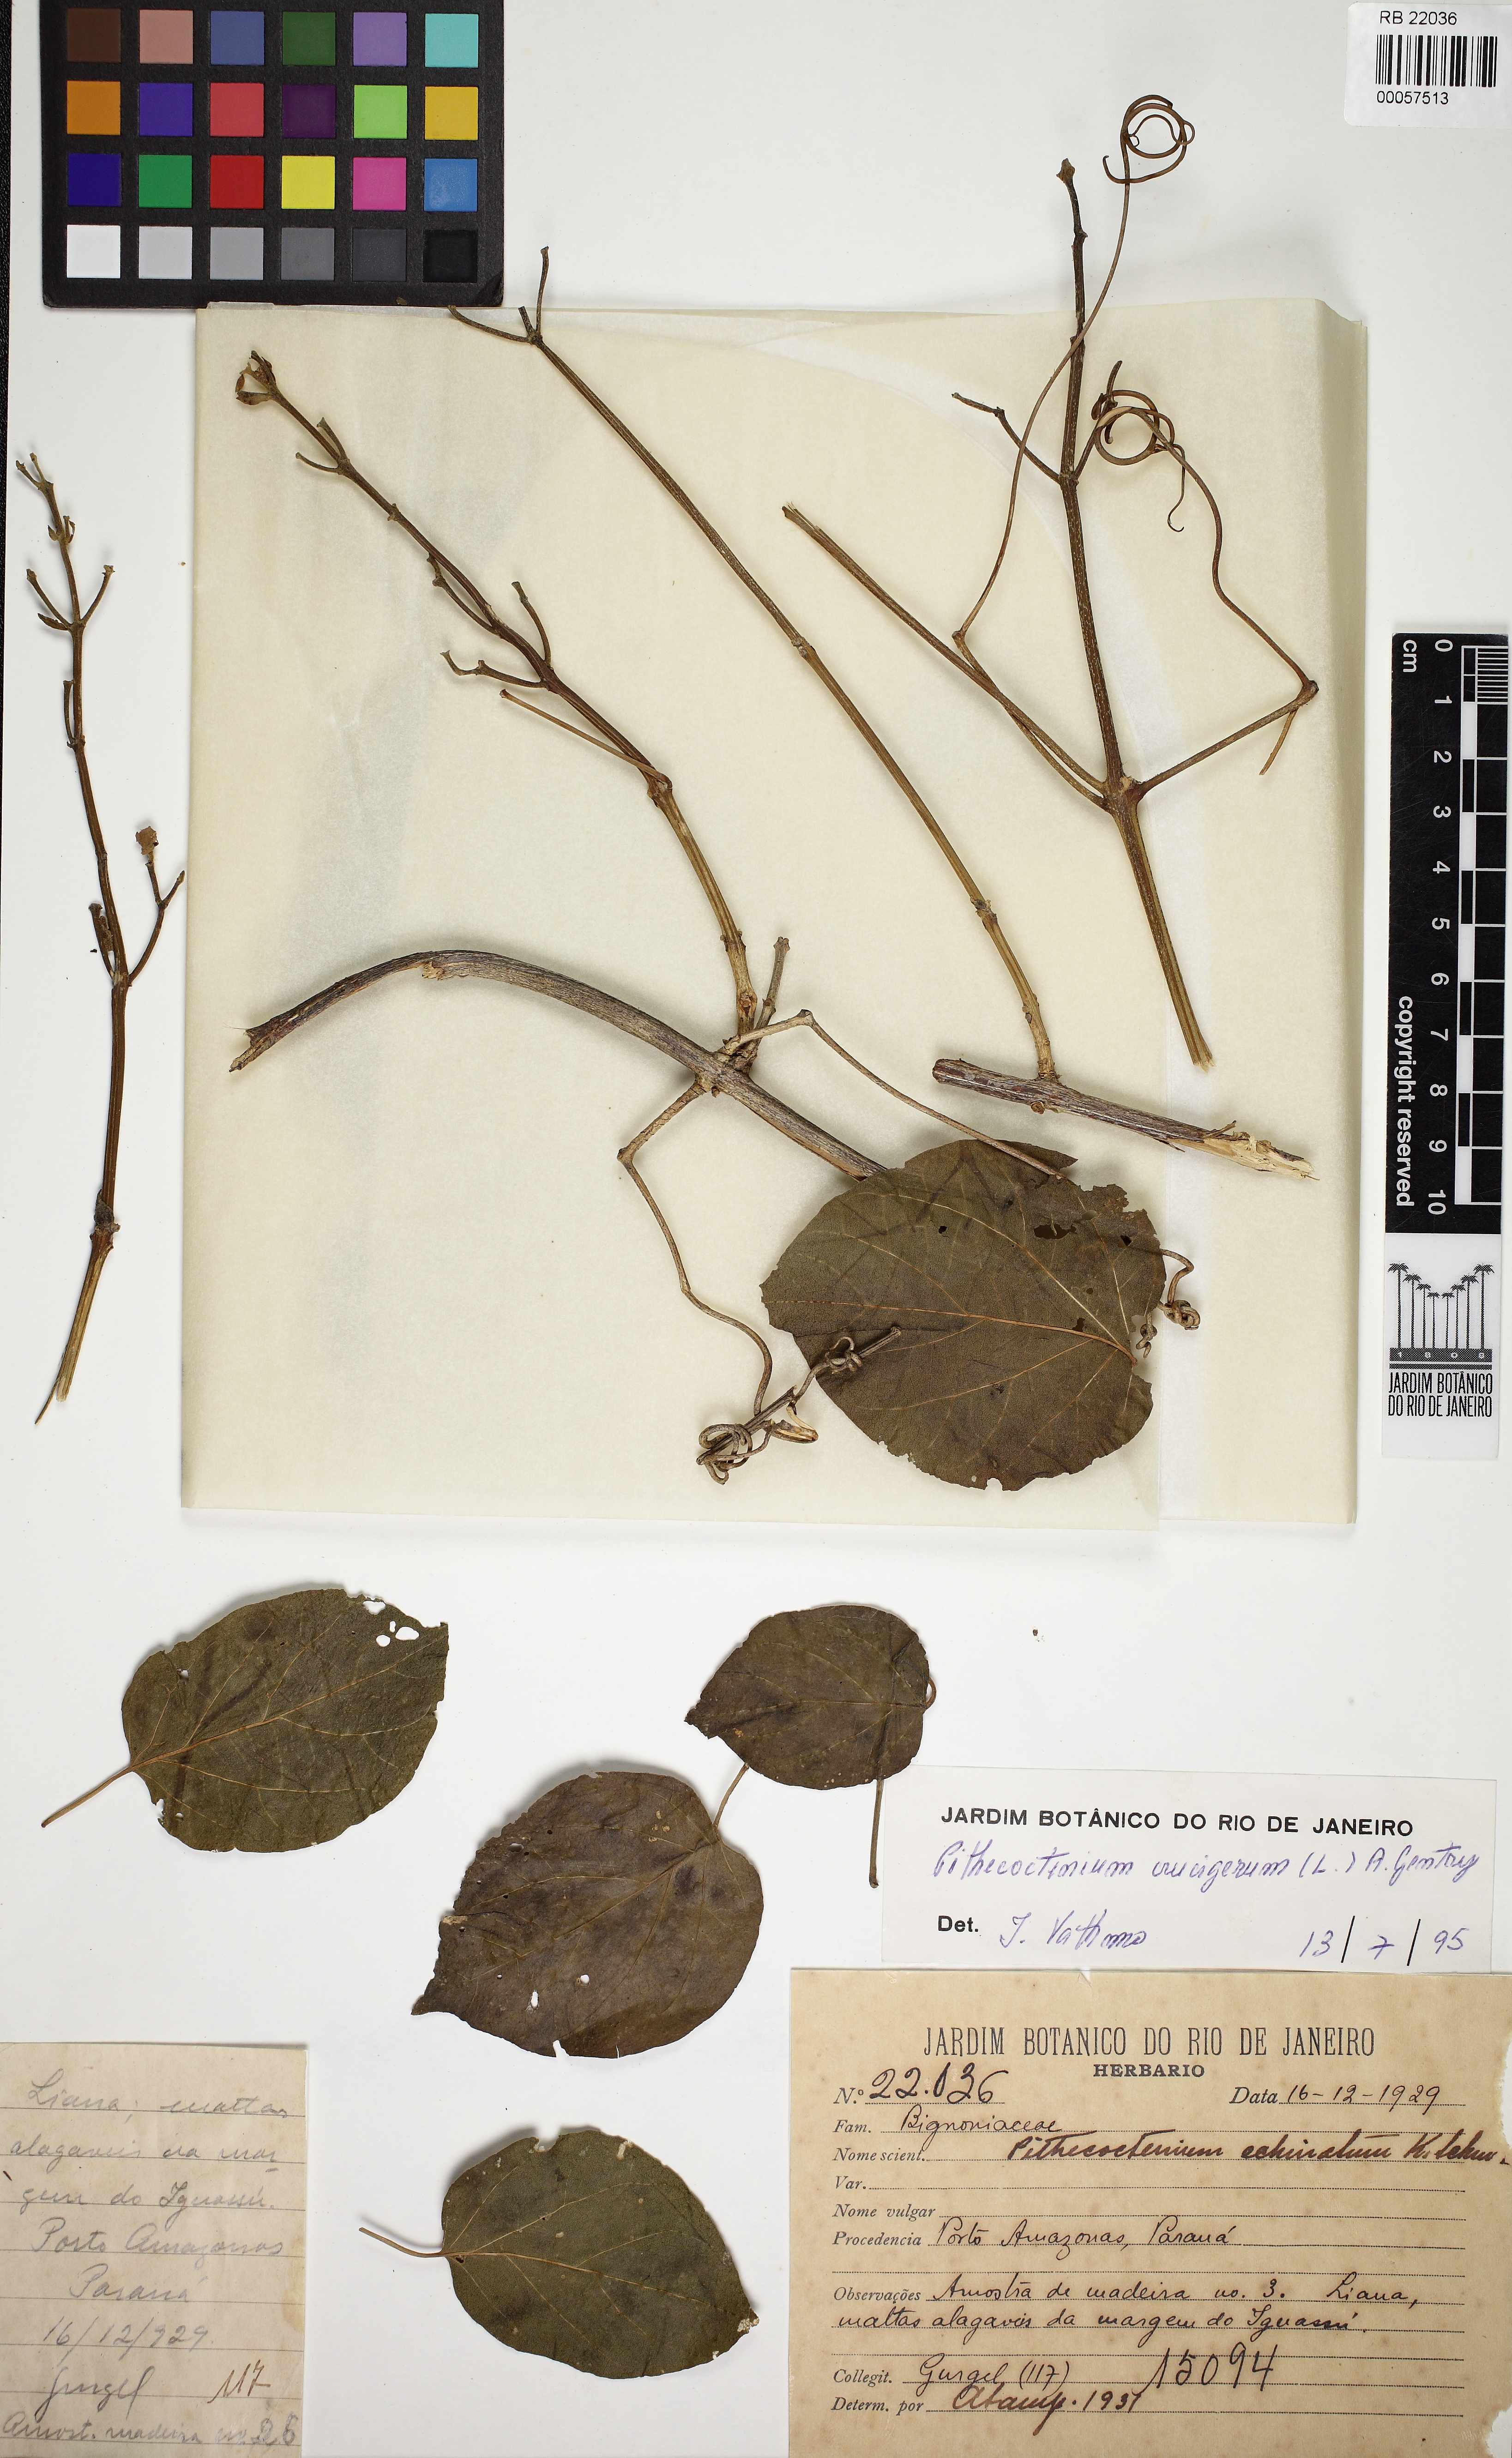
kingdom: Plantae
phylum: Tracheophyta
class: Magnoliopsida
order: Lamiales
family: Bignoniaceae
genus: Amphilophium
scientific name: Amphilophium crucigerum
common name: Monkey comb
